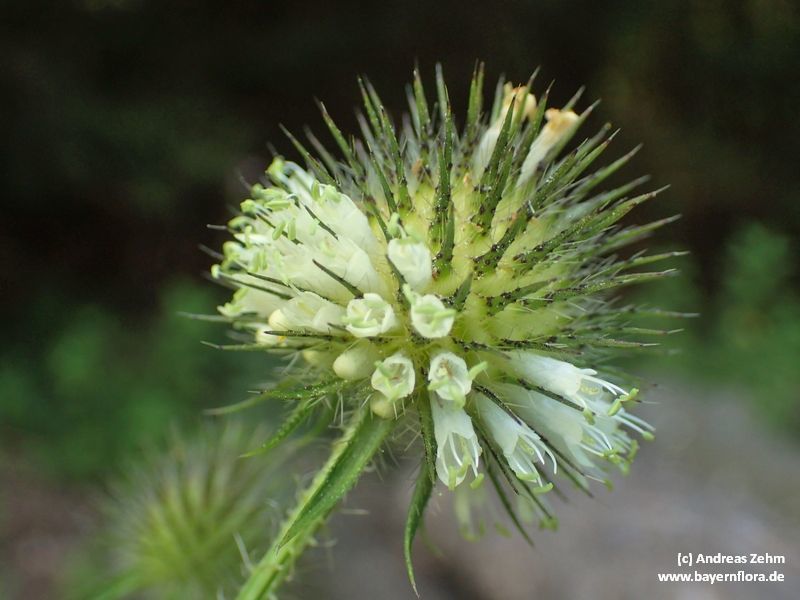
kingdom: Plantae
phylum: Tracheophyta
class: Magnoliopsida
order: Dipsacales
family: Caprifoliaceae
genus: Dipsacus
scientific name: Dipsacus strigosus
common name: Yellow-flowered teasel
